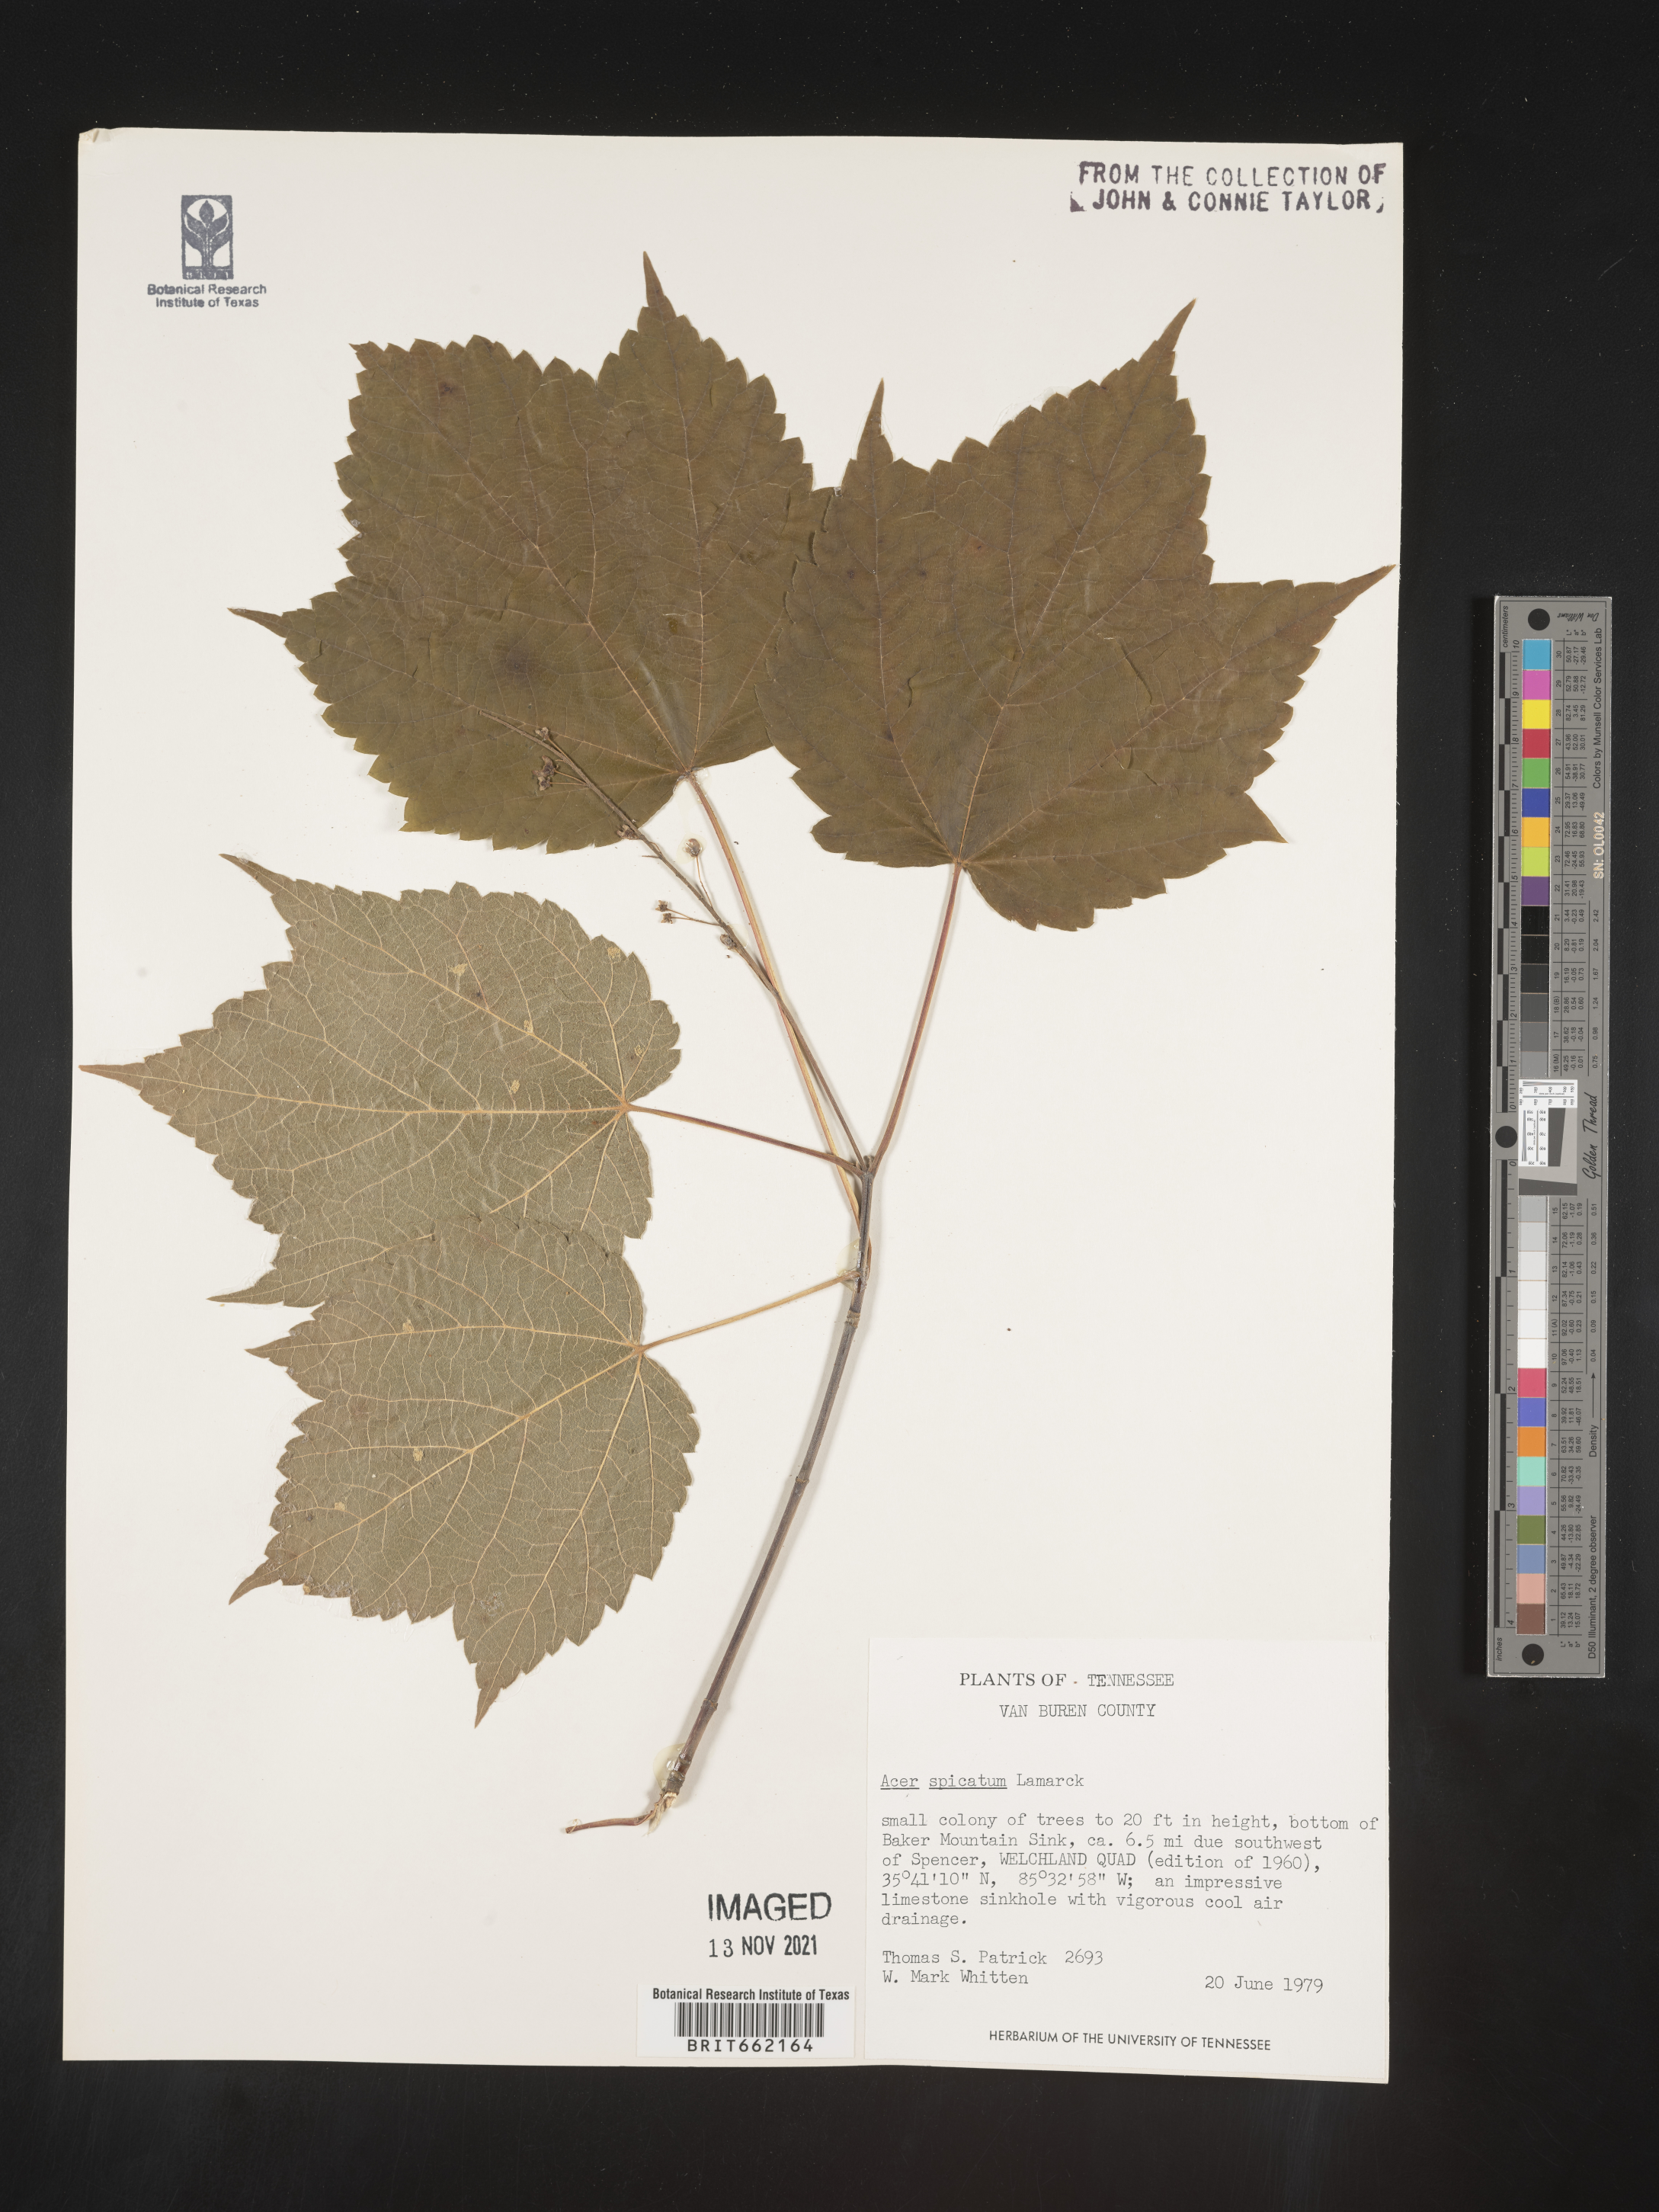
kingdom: Plantae
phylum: Tracheophyta
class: Magnoliopsida
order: Sapindales
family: Sapindaceae
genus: Acer
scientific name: Acer spicatum
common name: Mountain maple
